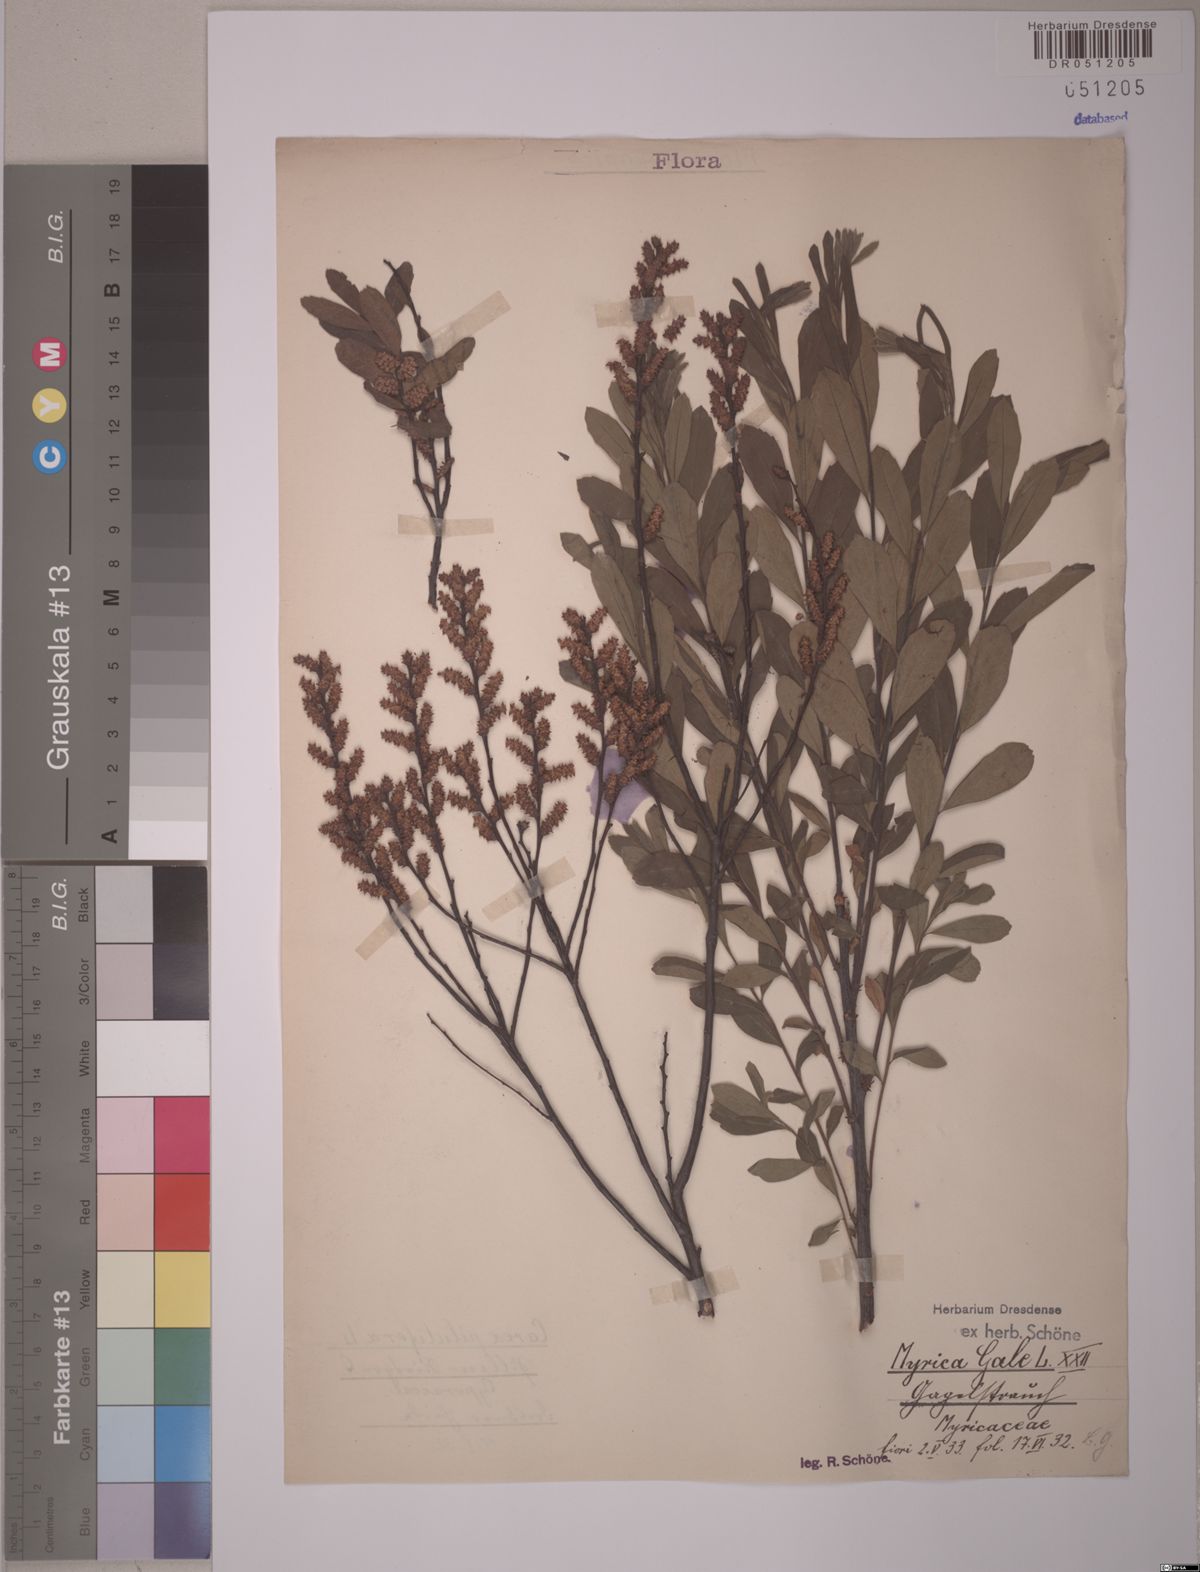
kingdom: Plantae
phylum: Tracheophyta
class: Magnoliopsida
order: Fagales
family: Myricaceae
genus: Myrica
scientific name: Myrica gale
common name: Sweet gale
